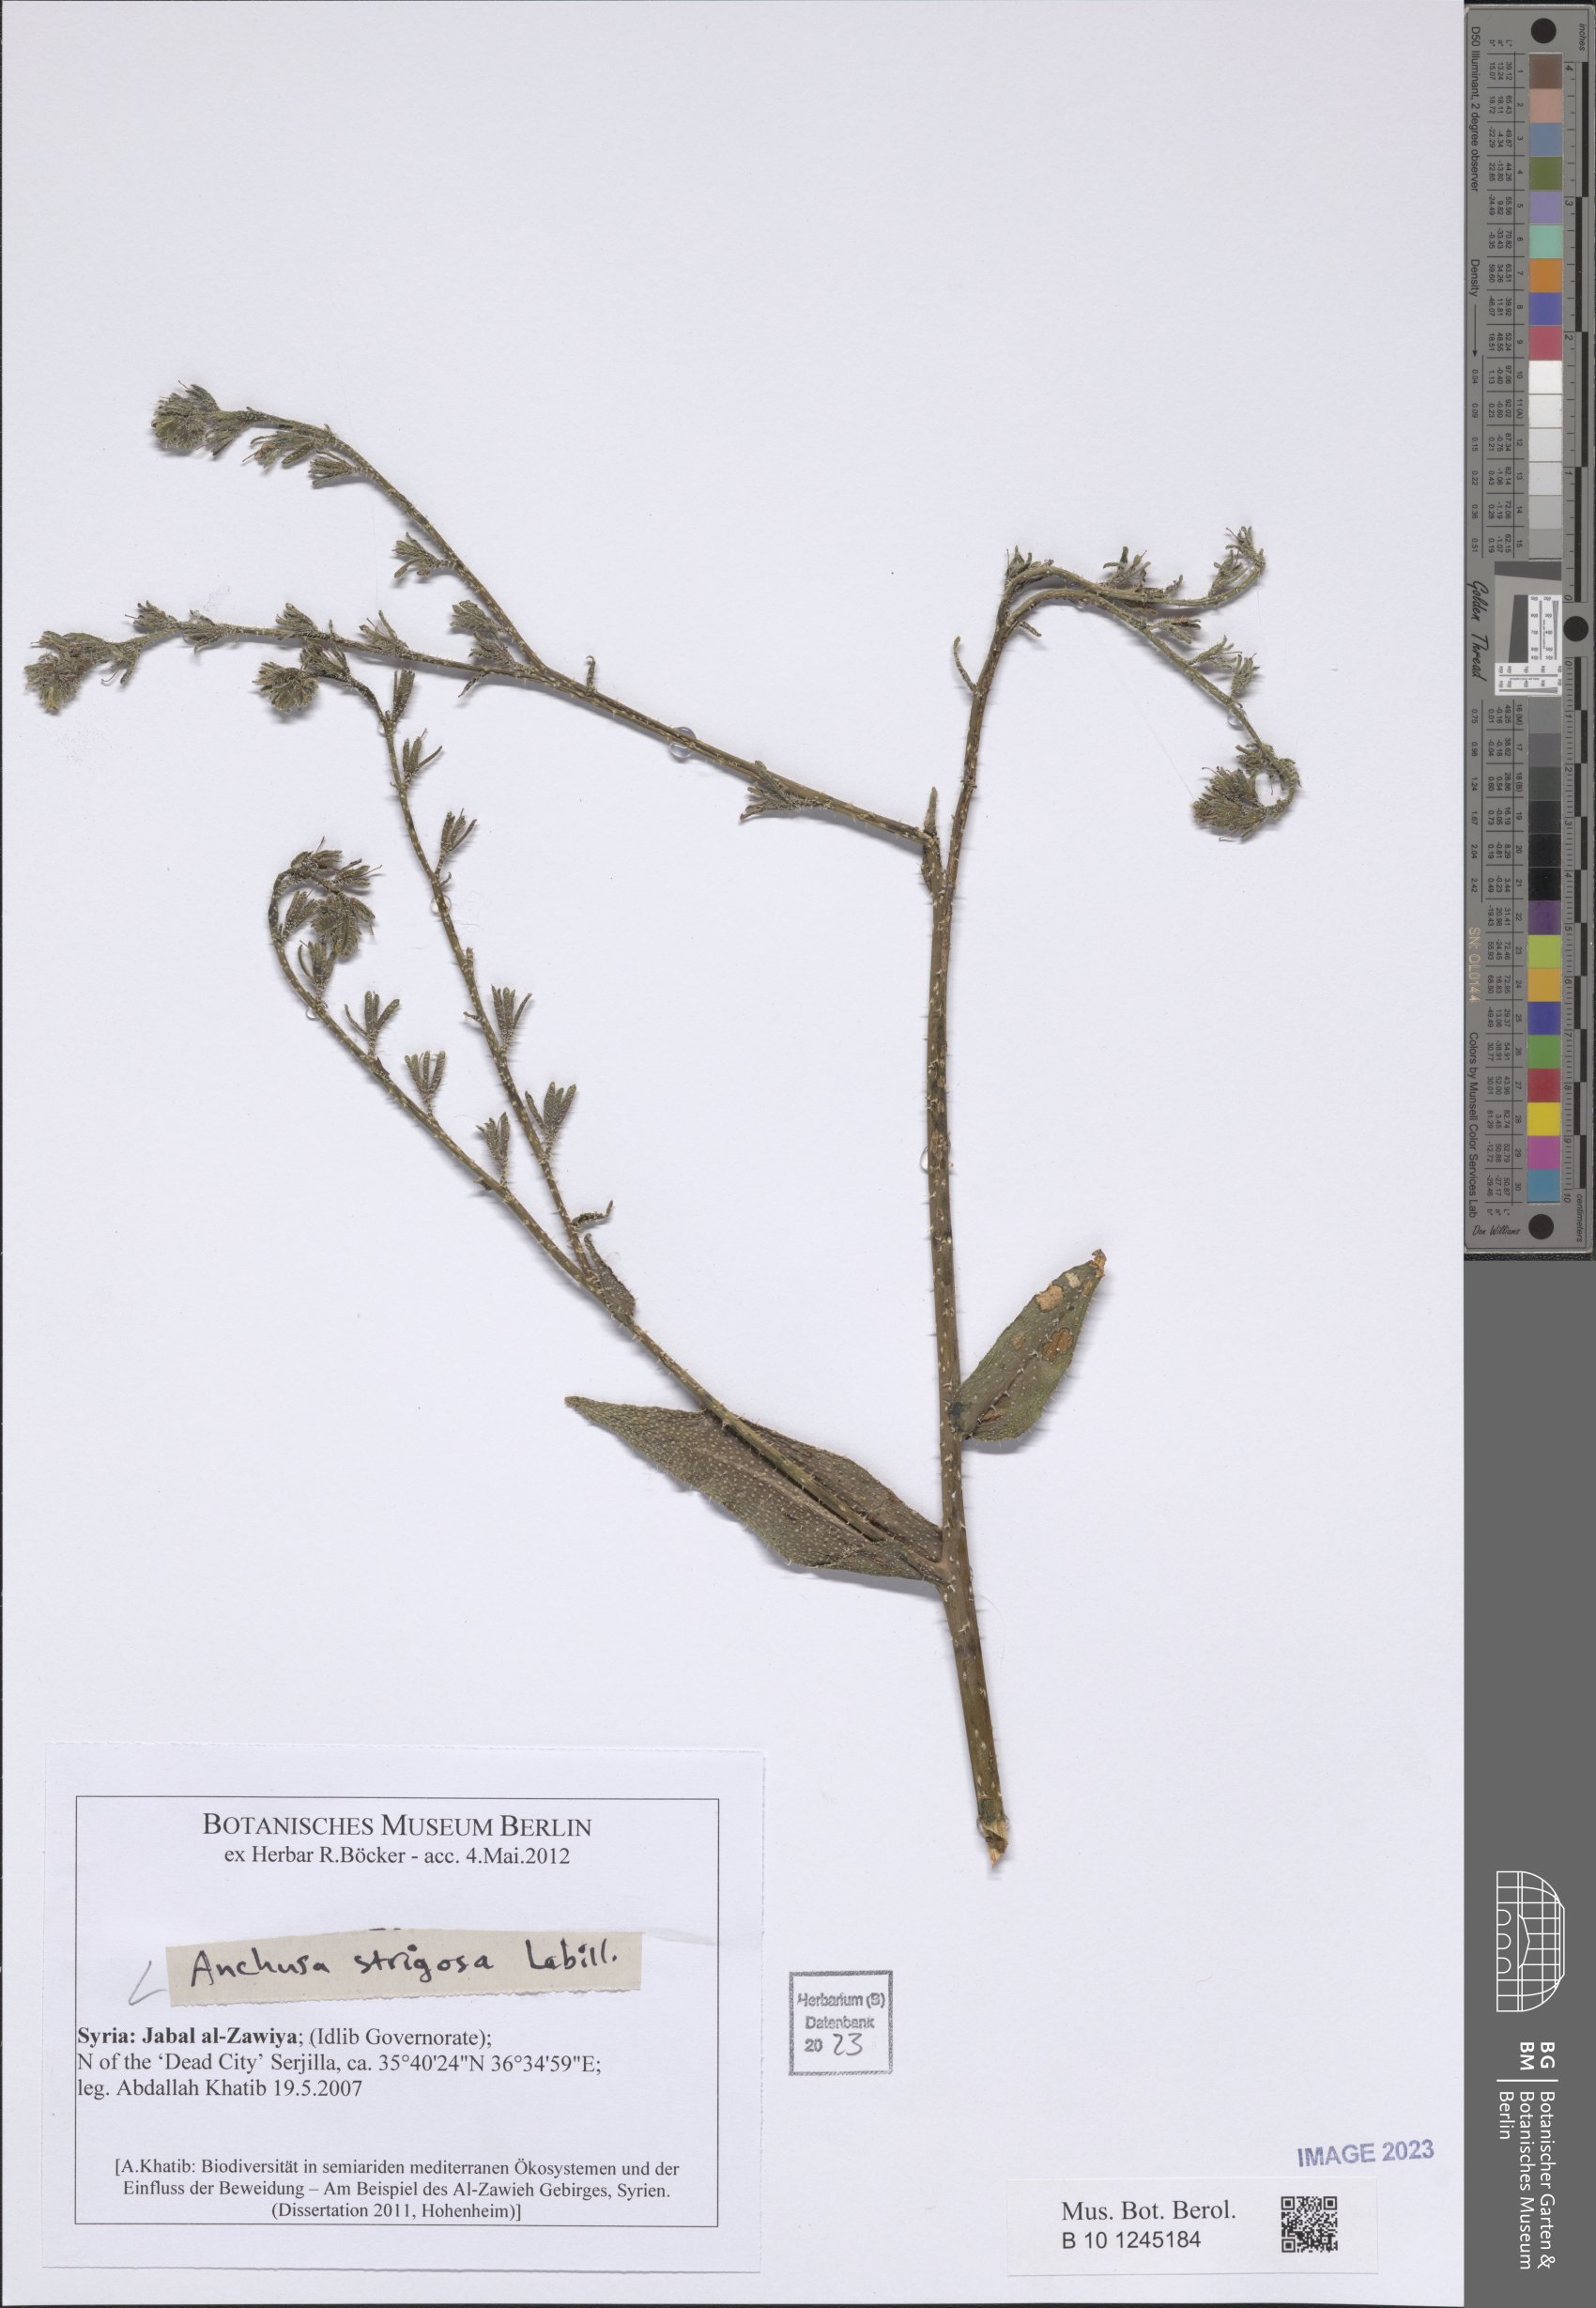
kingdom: Plantae
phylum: Tracheophyta
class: Magnoliopsida
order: Boraginales
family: Boraginaceae
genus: Anchusa
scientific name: Anchusa strigosa
